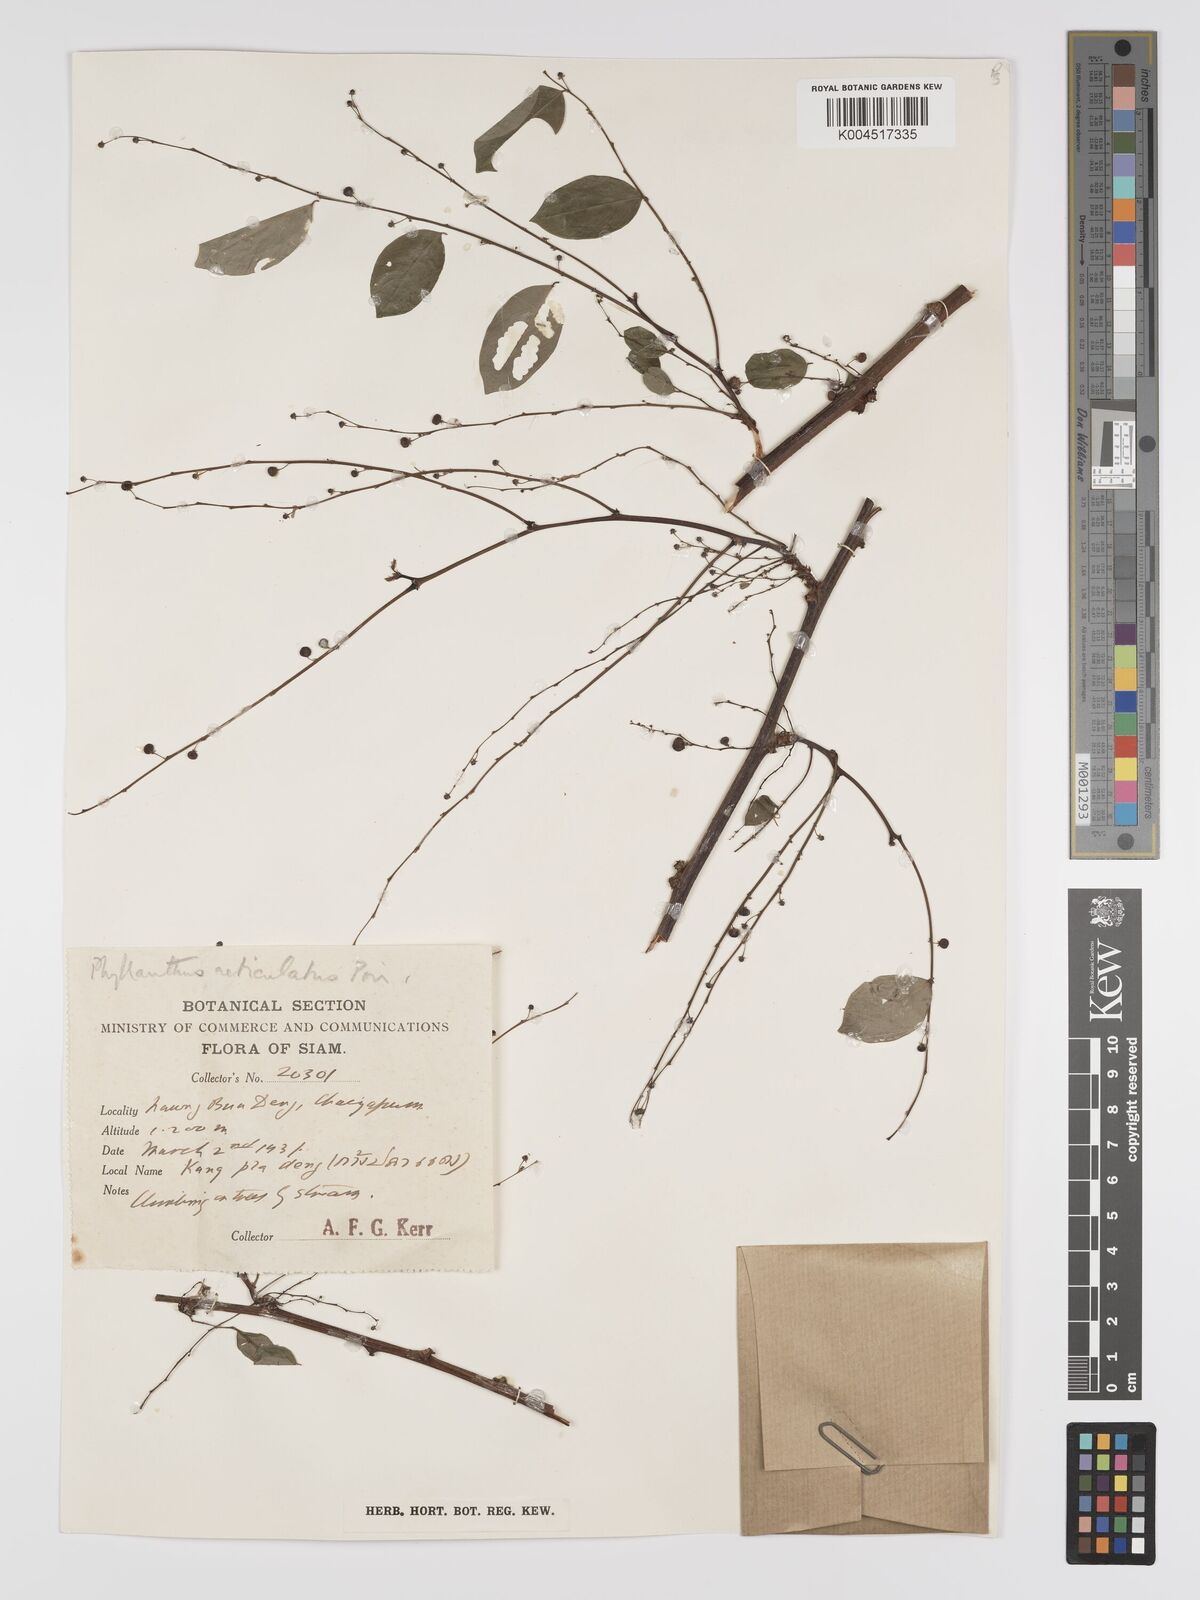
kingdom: Plantae
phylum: Tracheophyta
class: Magnoliopsida
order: Malpighiales
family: Phyllanthaceae
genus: Phyllanthus
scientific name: Phyllanthus reticulatus
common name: Potato bush
